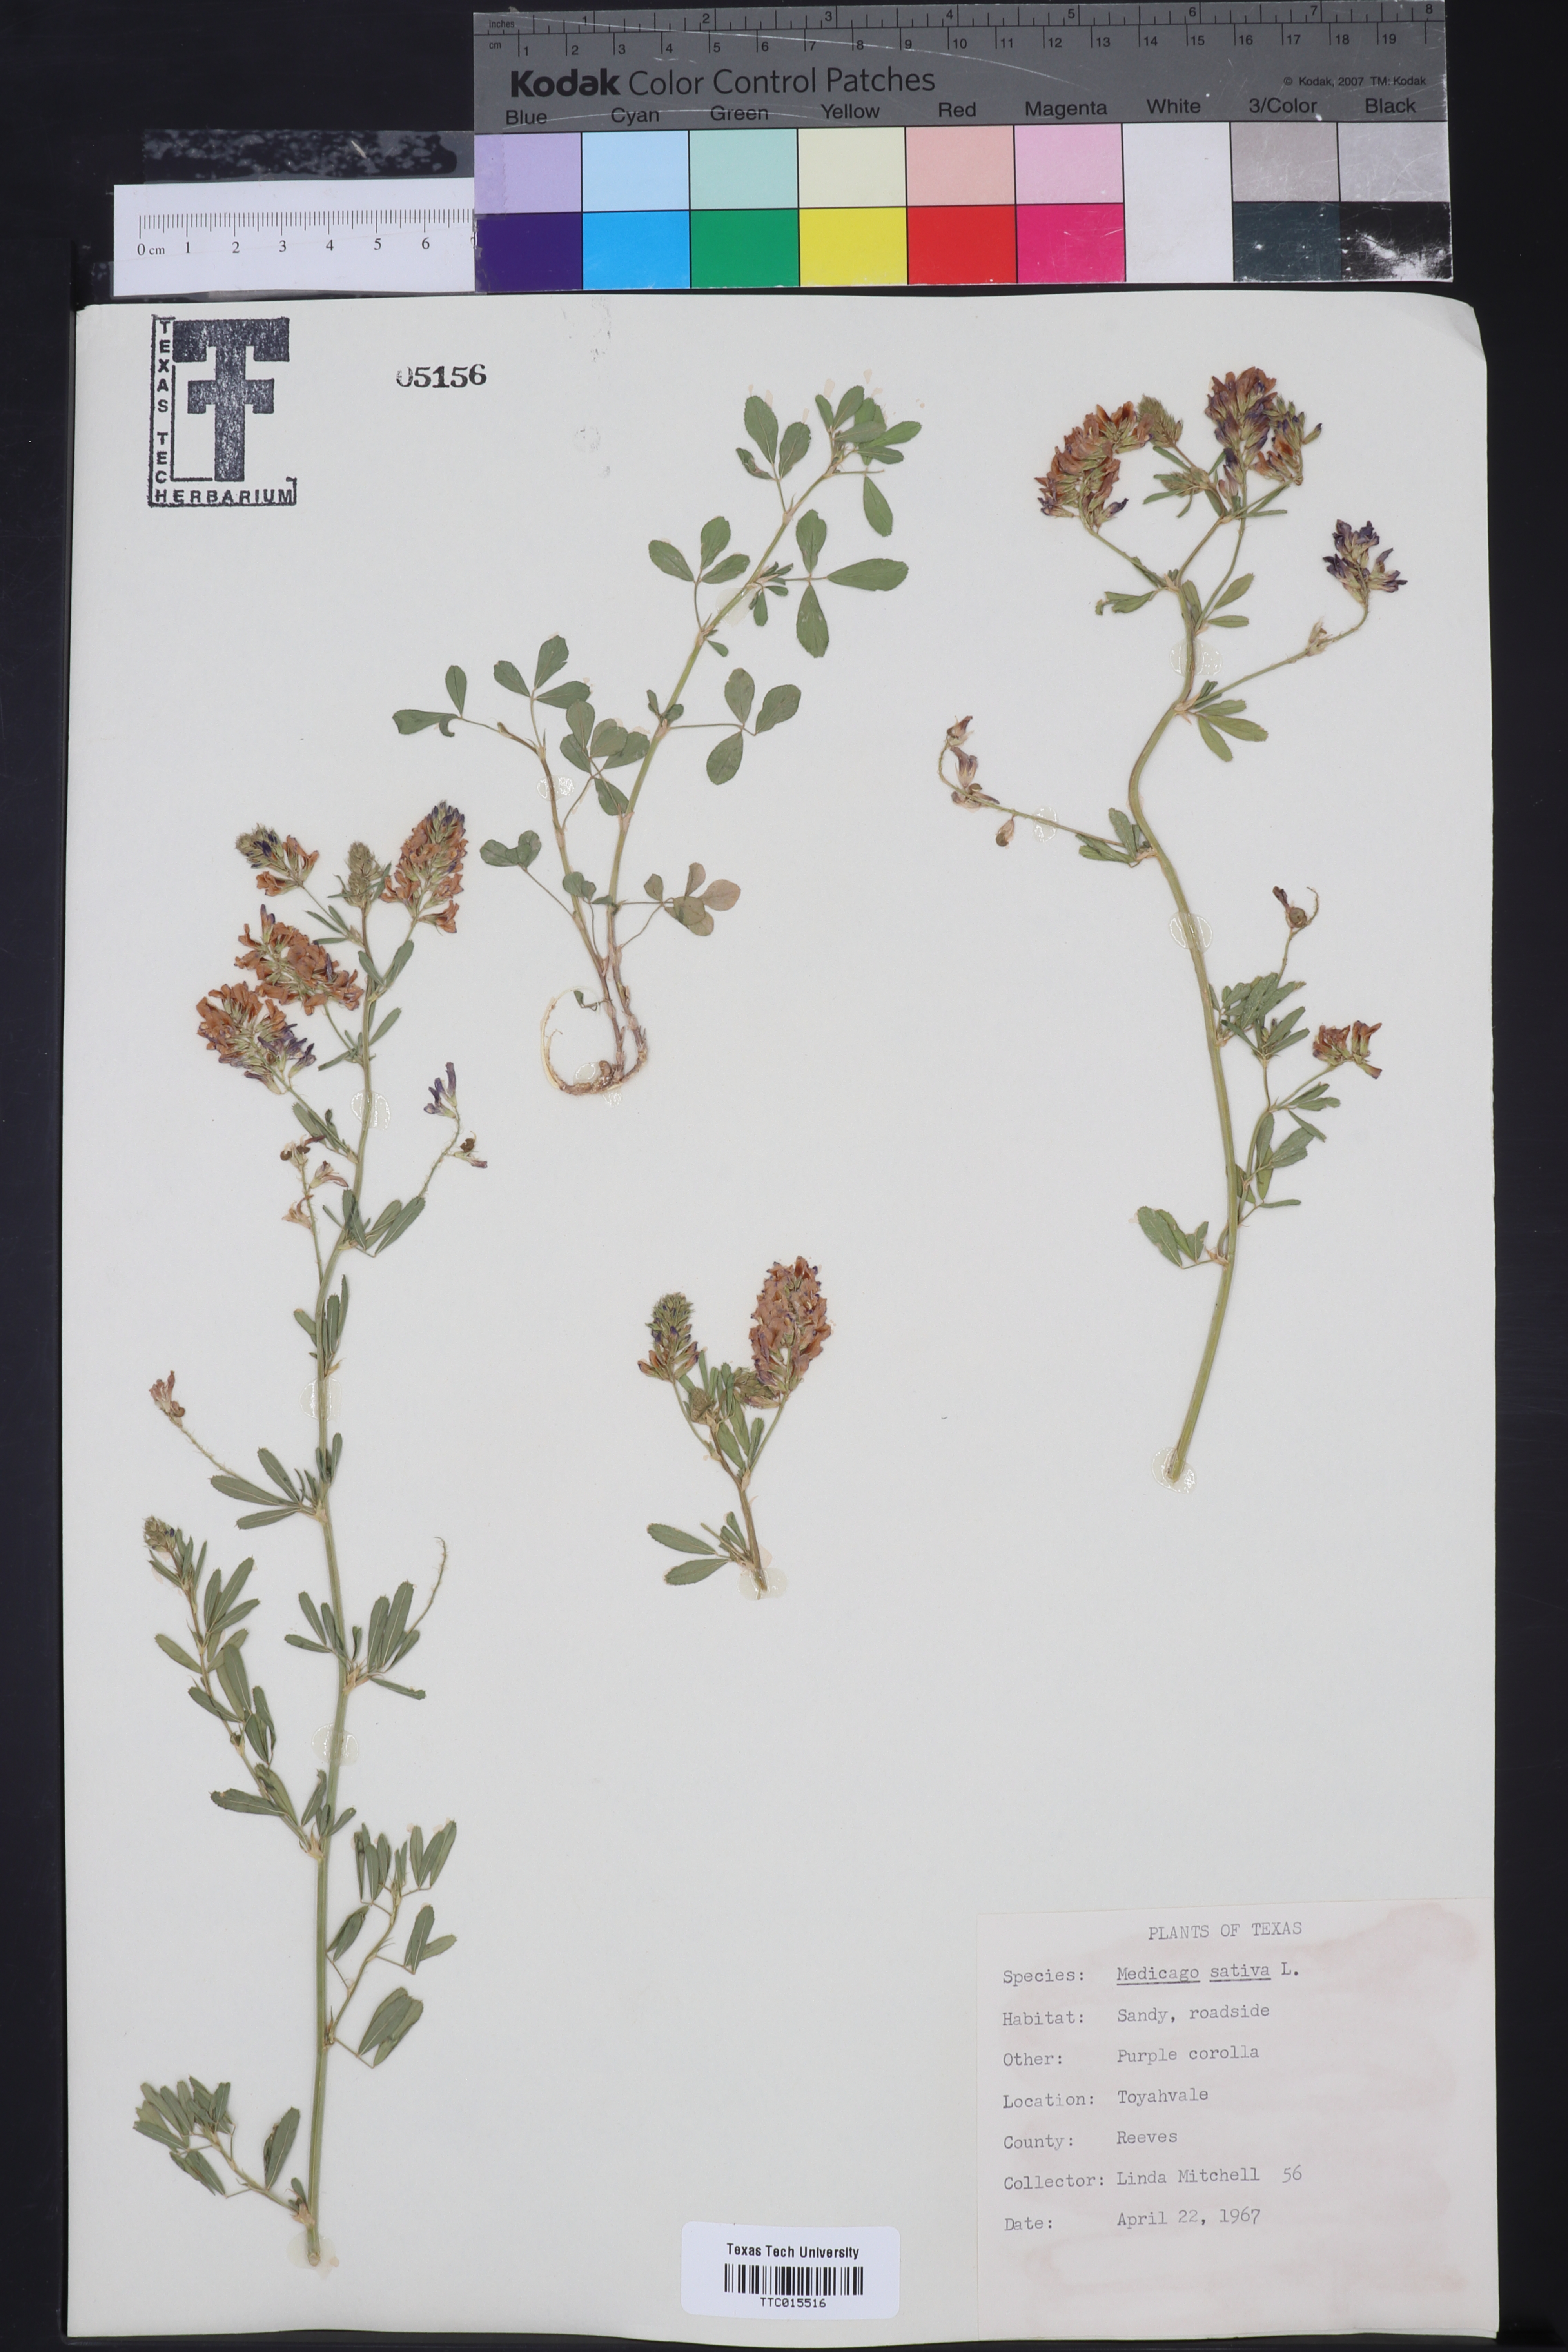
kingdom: Plantae
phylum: Tracheophyta
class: Magnoliopsida
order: Fabales
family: Fabaceae
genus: Medicago
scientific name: Medicago sativa
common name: Alfalfa
